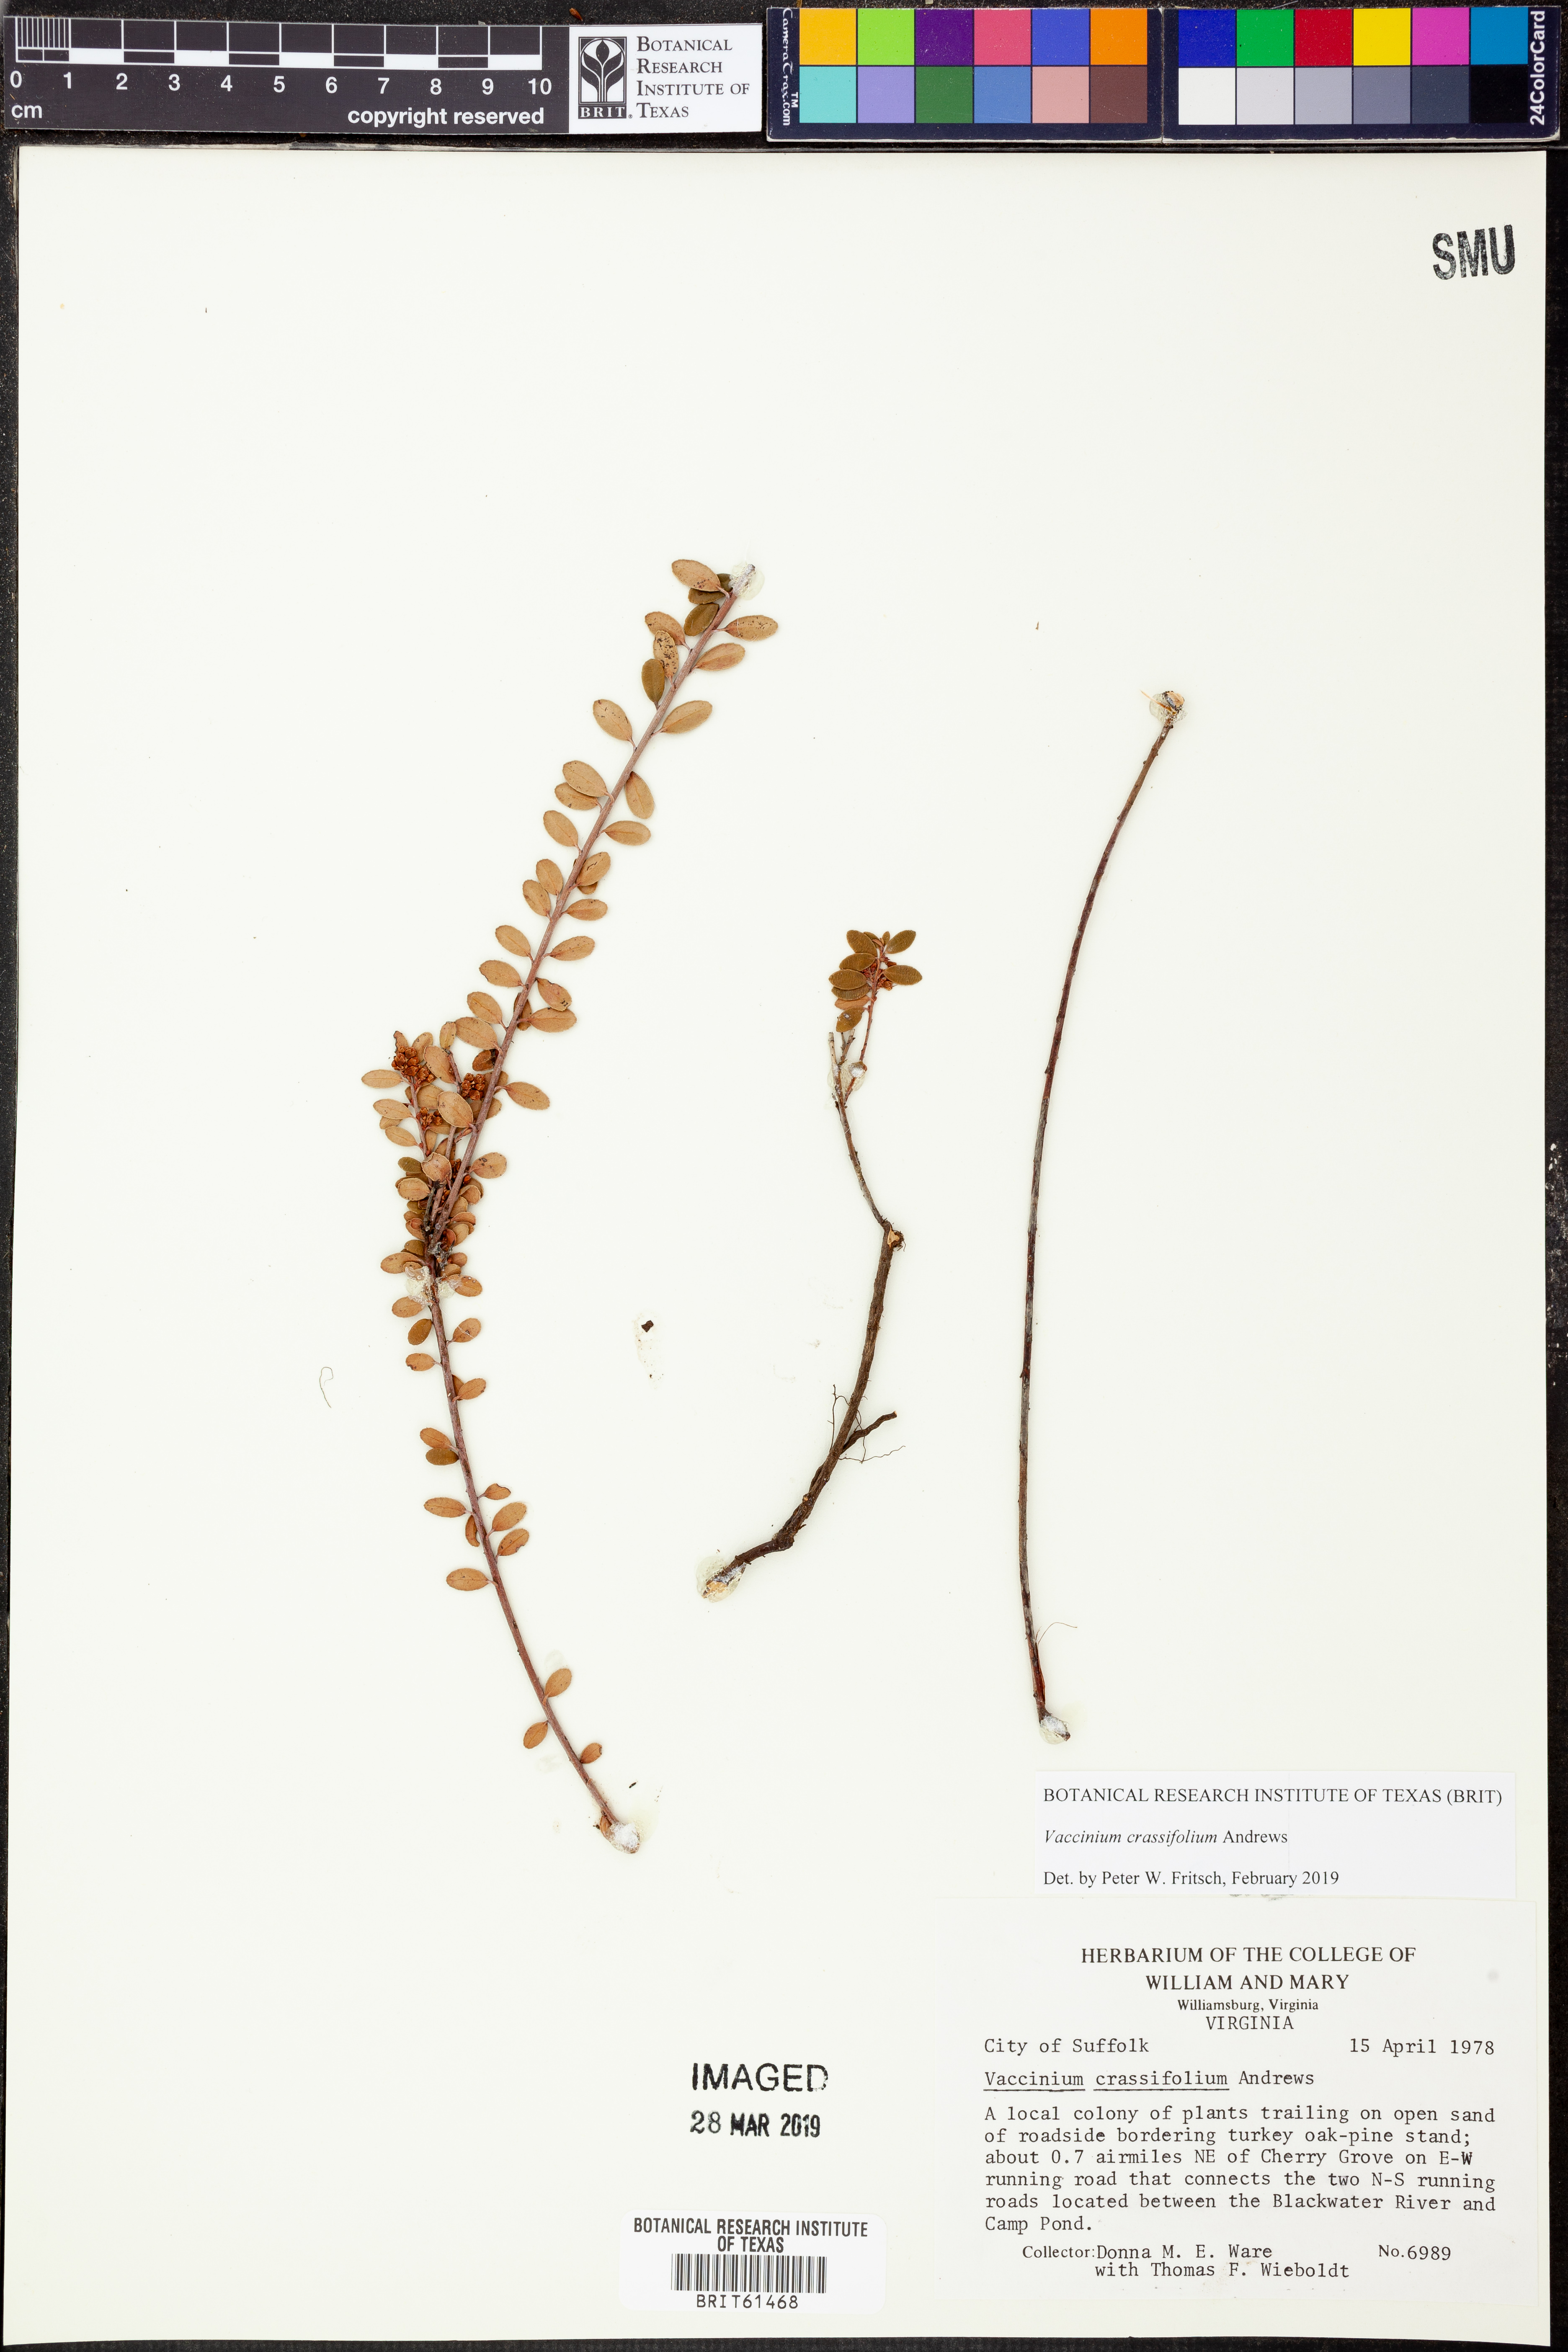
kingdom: Plantae
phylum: Tracheophyta
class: Magnoliopsida
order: Ericales
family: Ericaceae
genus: Vaccinium
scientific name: Vaccinium crassifolium
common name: Creeping blueberry
